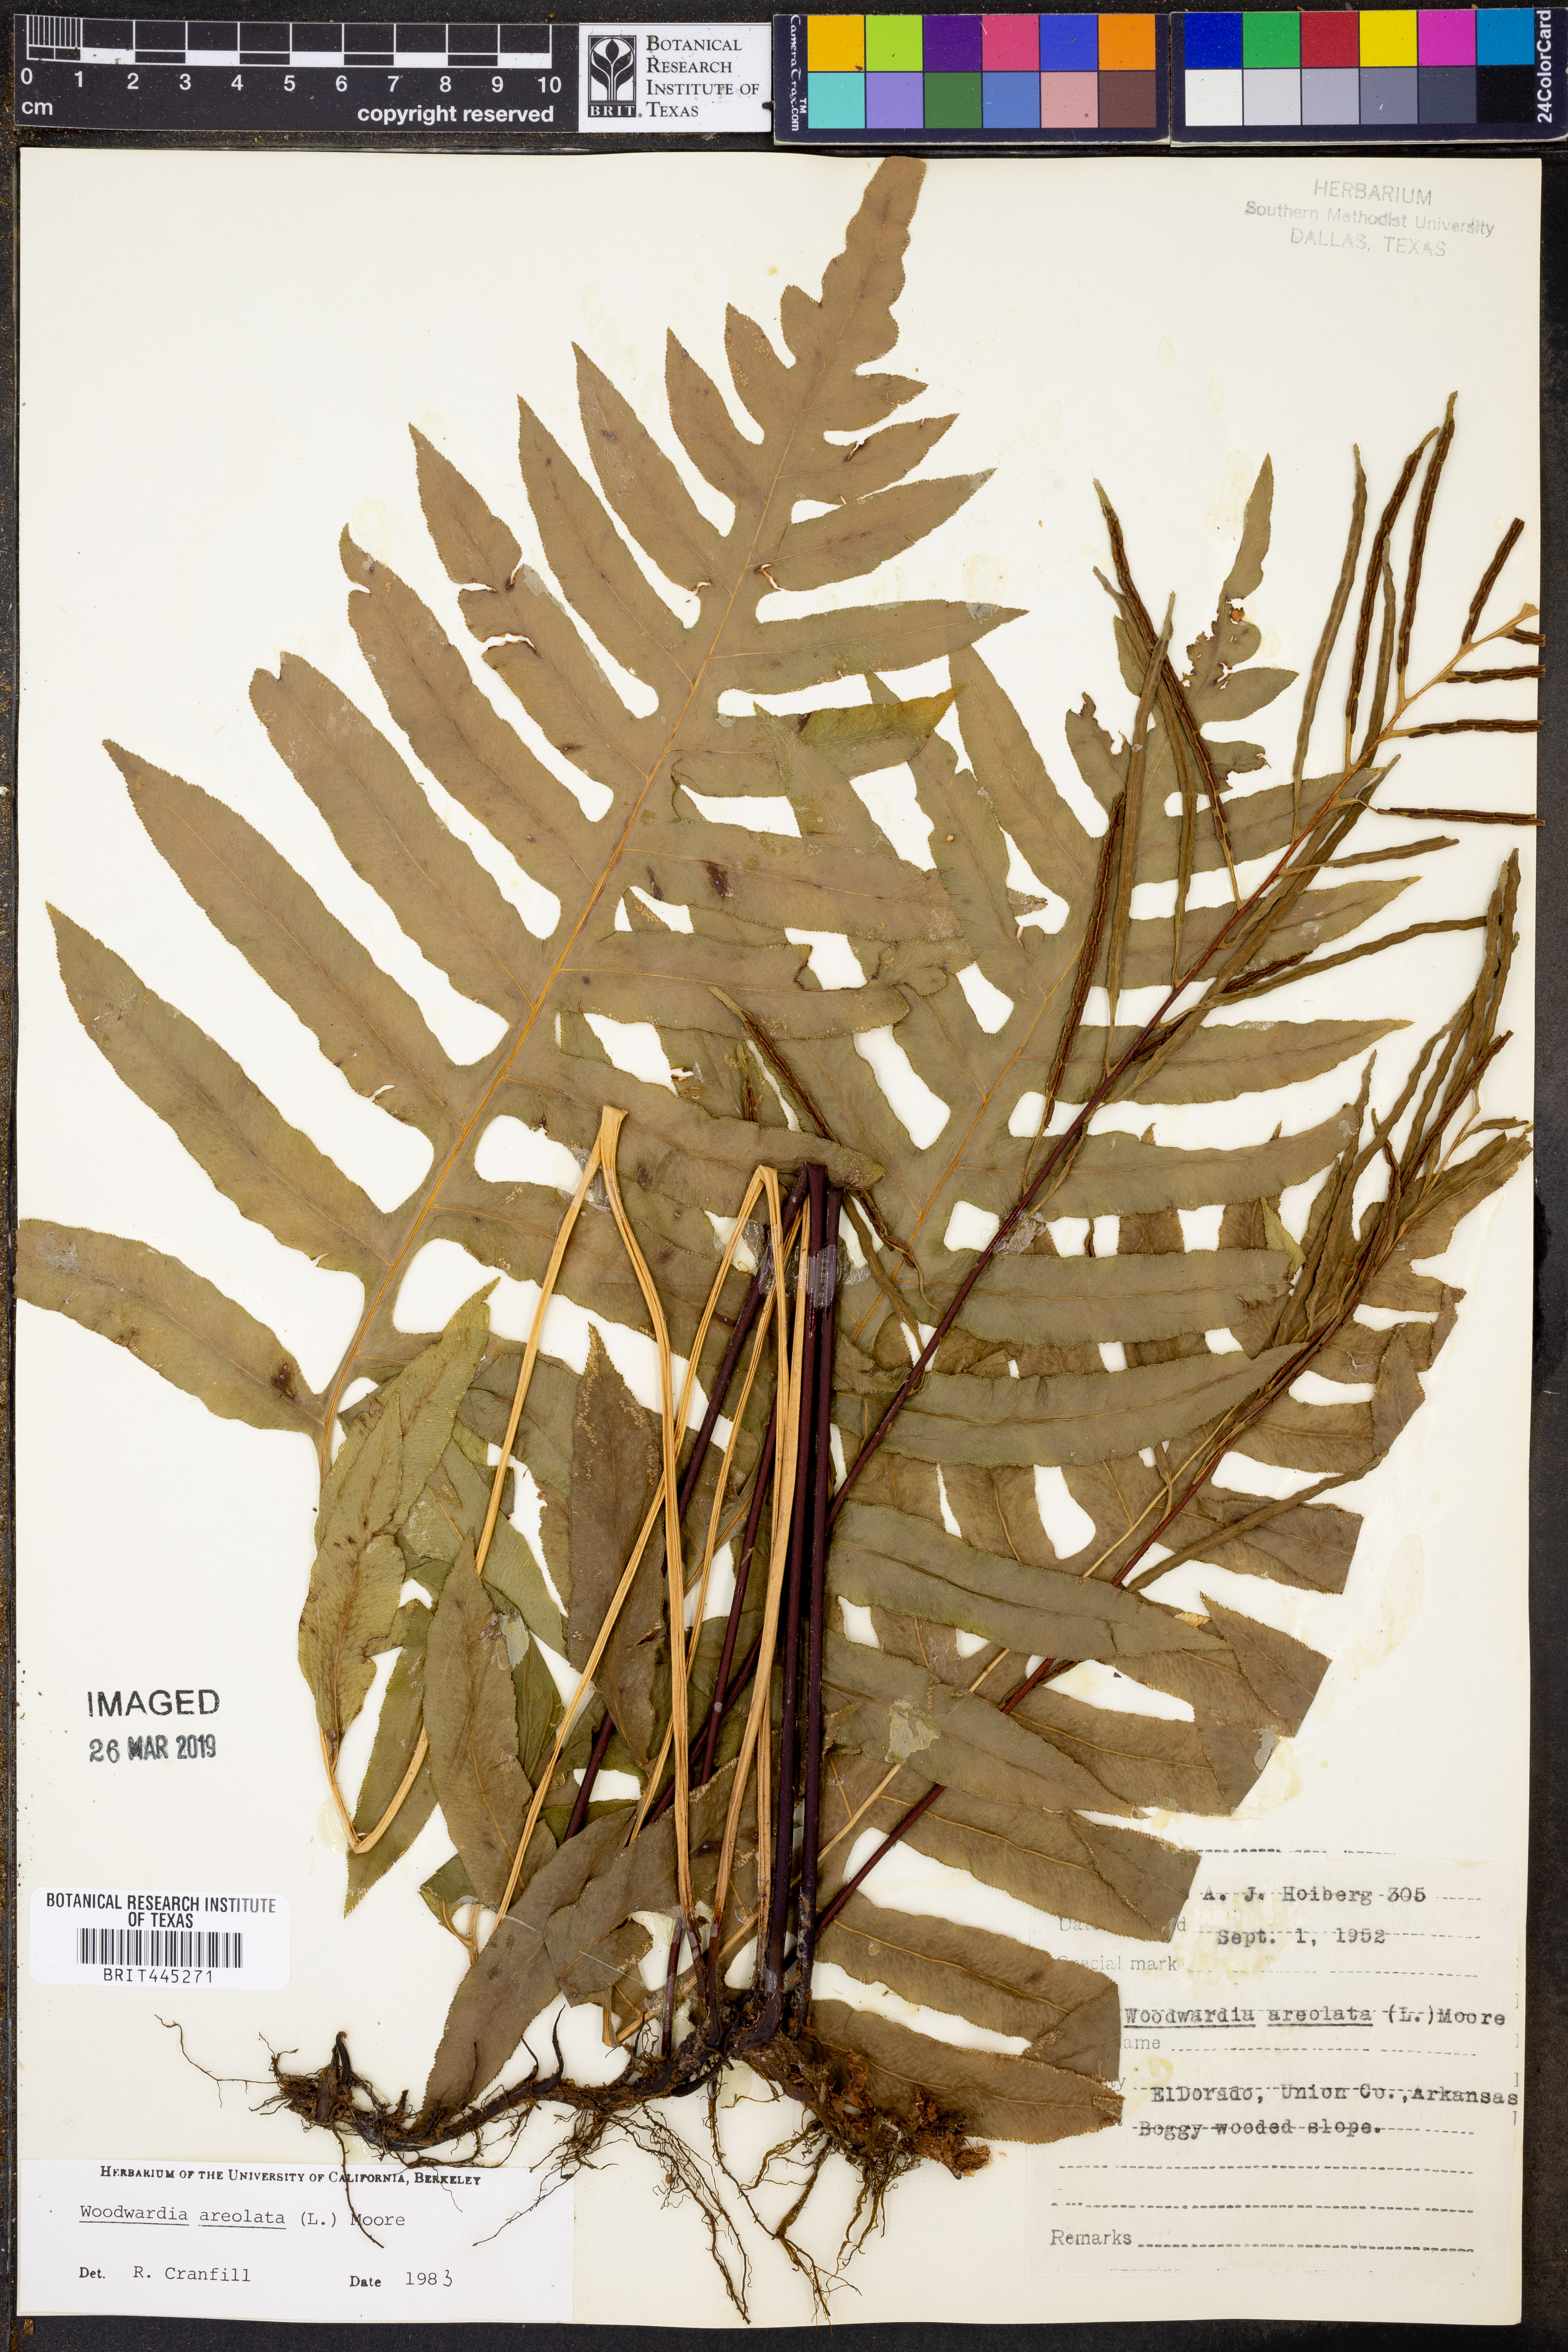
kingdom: Plantae
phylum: Tracheophyta
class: Polypodiopsida
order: Polypodiales
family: Blechnaceae
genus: Lorinseria
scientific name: Lorinseria areolata
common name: Dwarf chain fern
